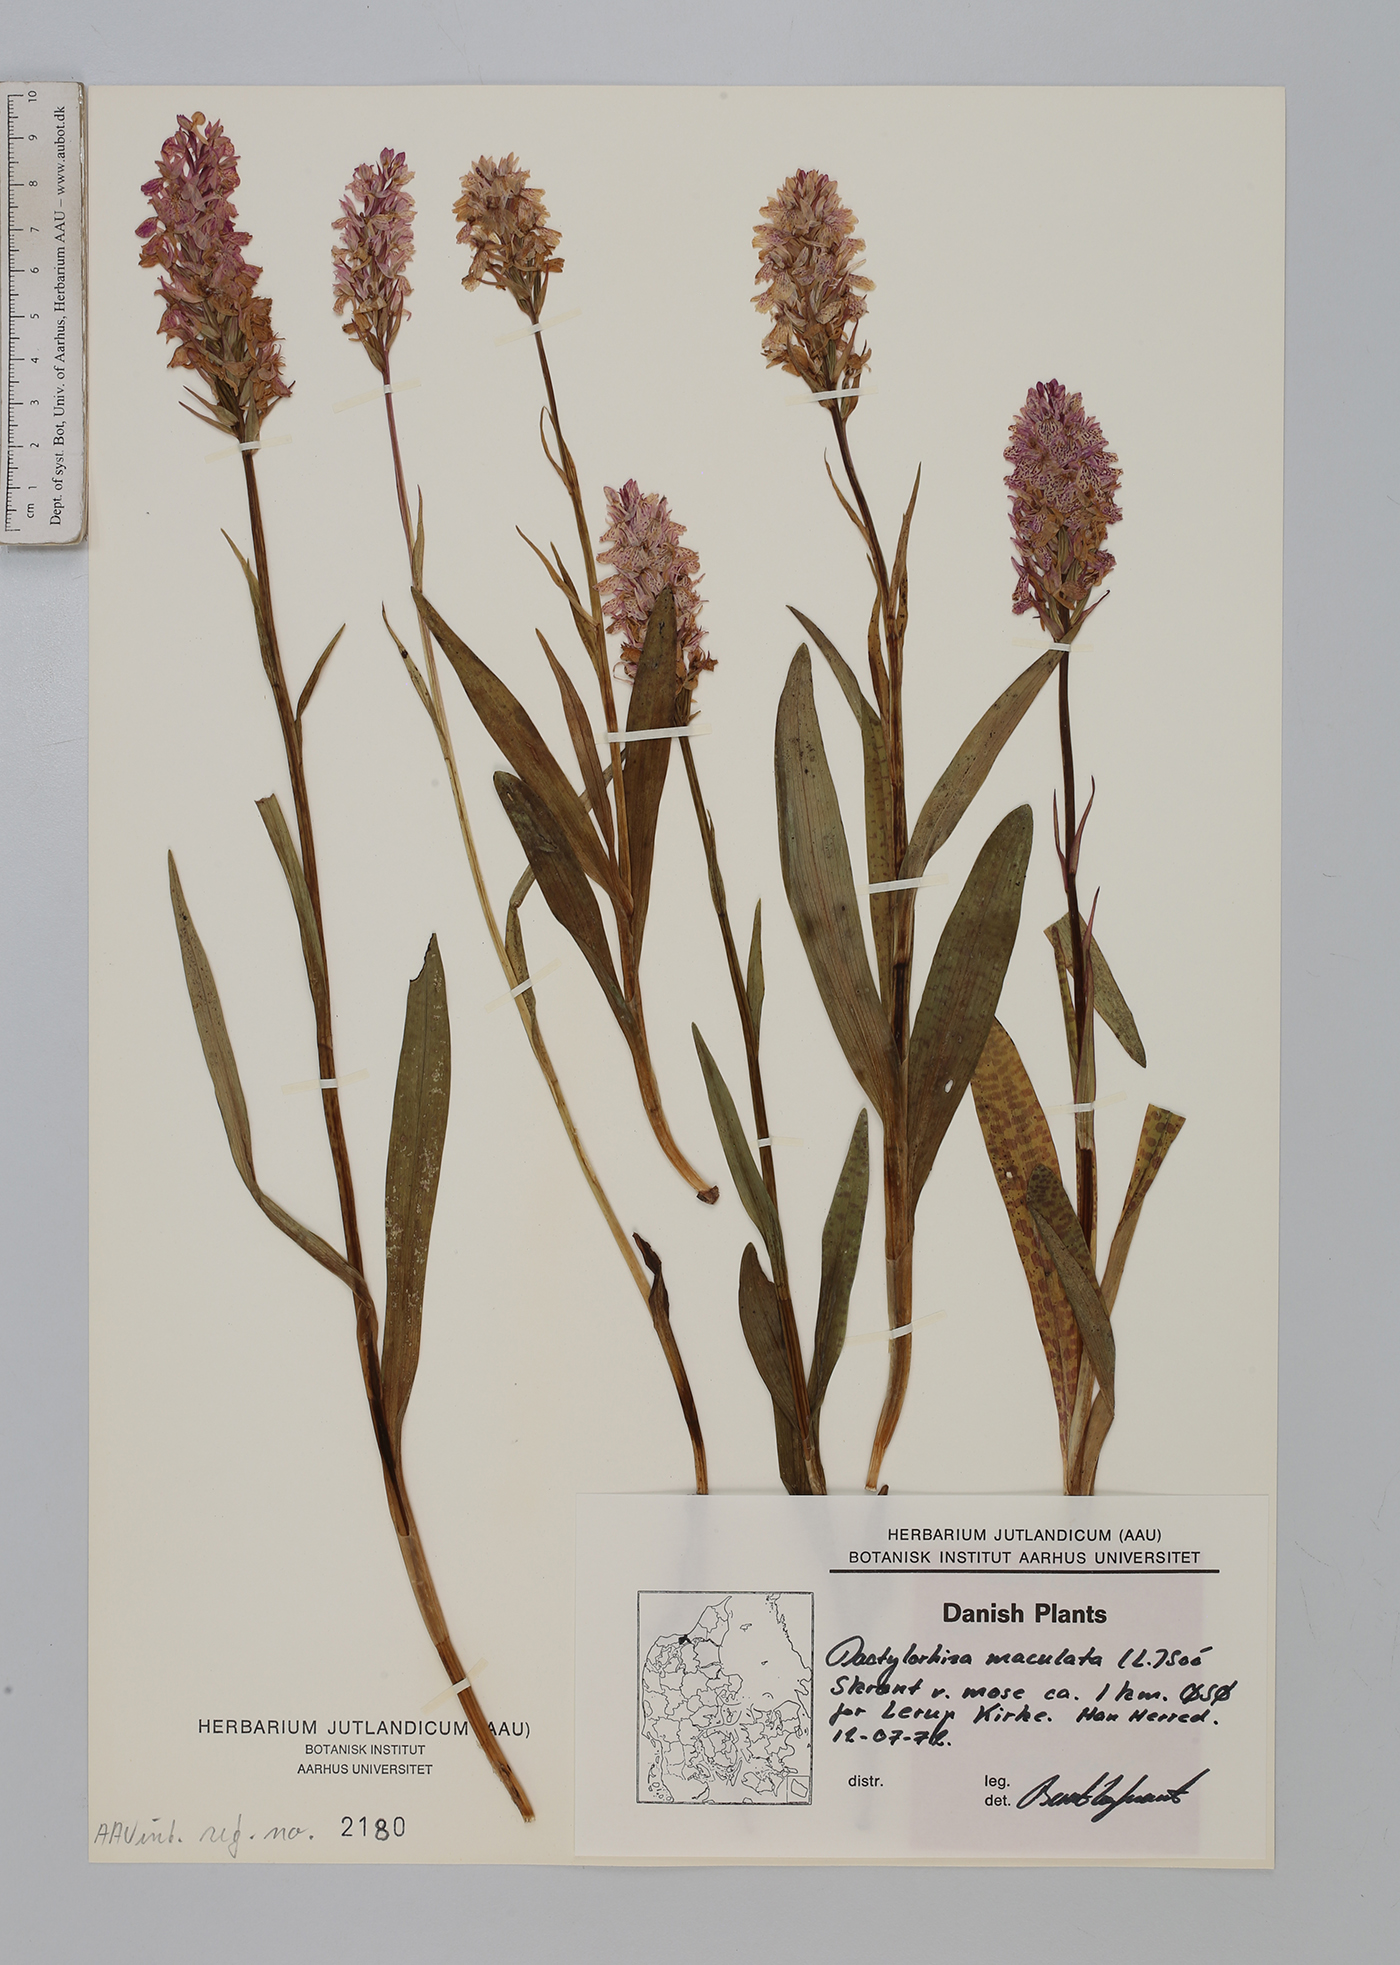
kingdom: Plantae
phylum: Tracheophyta
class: Liliopsida
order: Asparagales
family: Orchidaceae
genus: Dactylorhiza
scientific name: Dactylorhiza maculata
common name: Heath spotted-orchid
